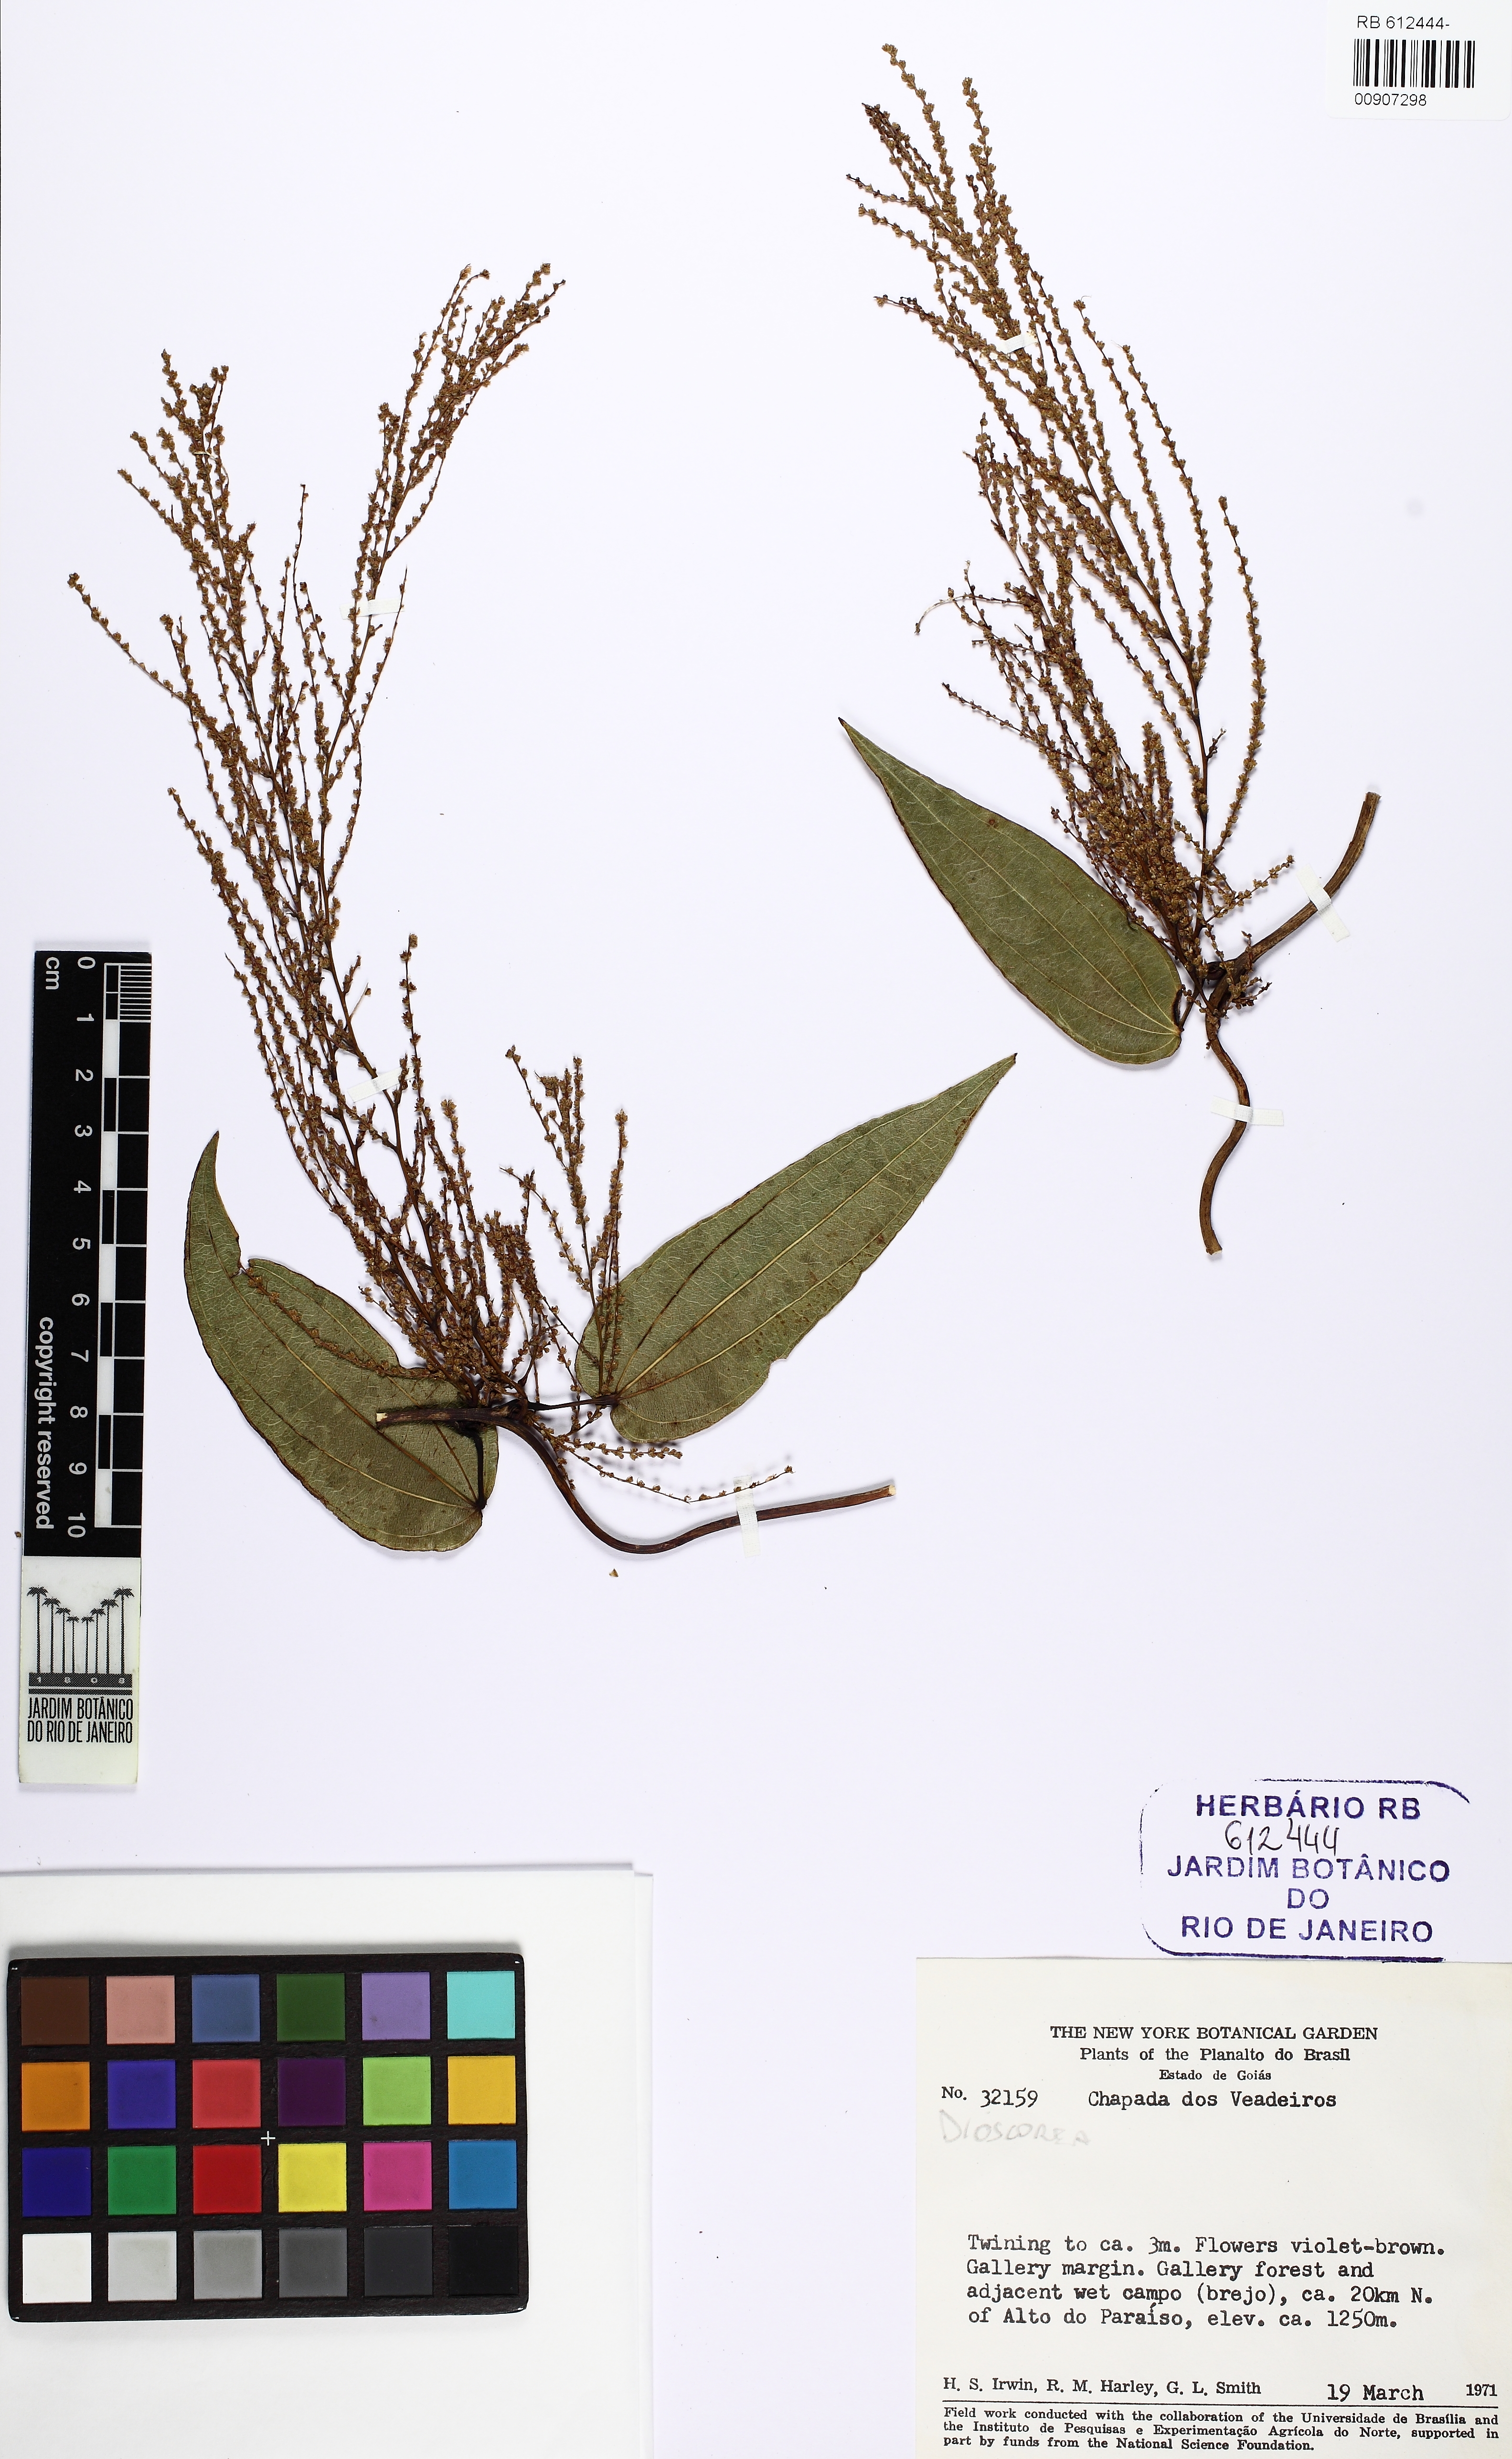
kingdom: Plantae
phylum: Tracheophyta
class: Liliopsida
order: Dioscoreales
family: Dioscoreaceae
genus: Dioscorea
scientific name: Dioscorea
